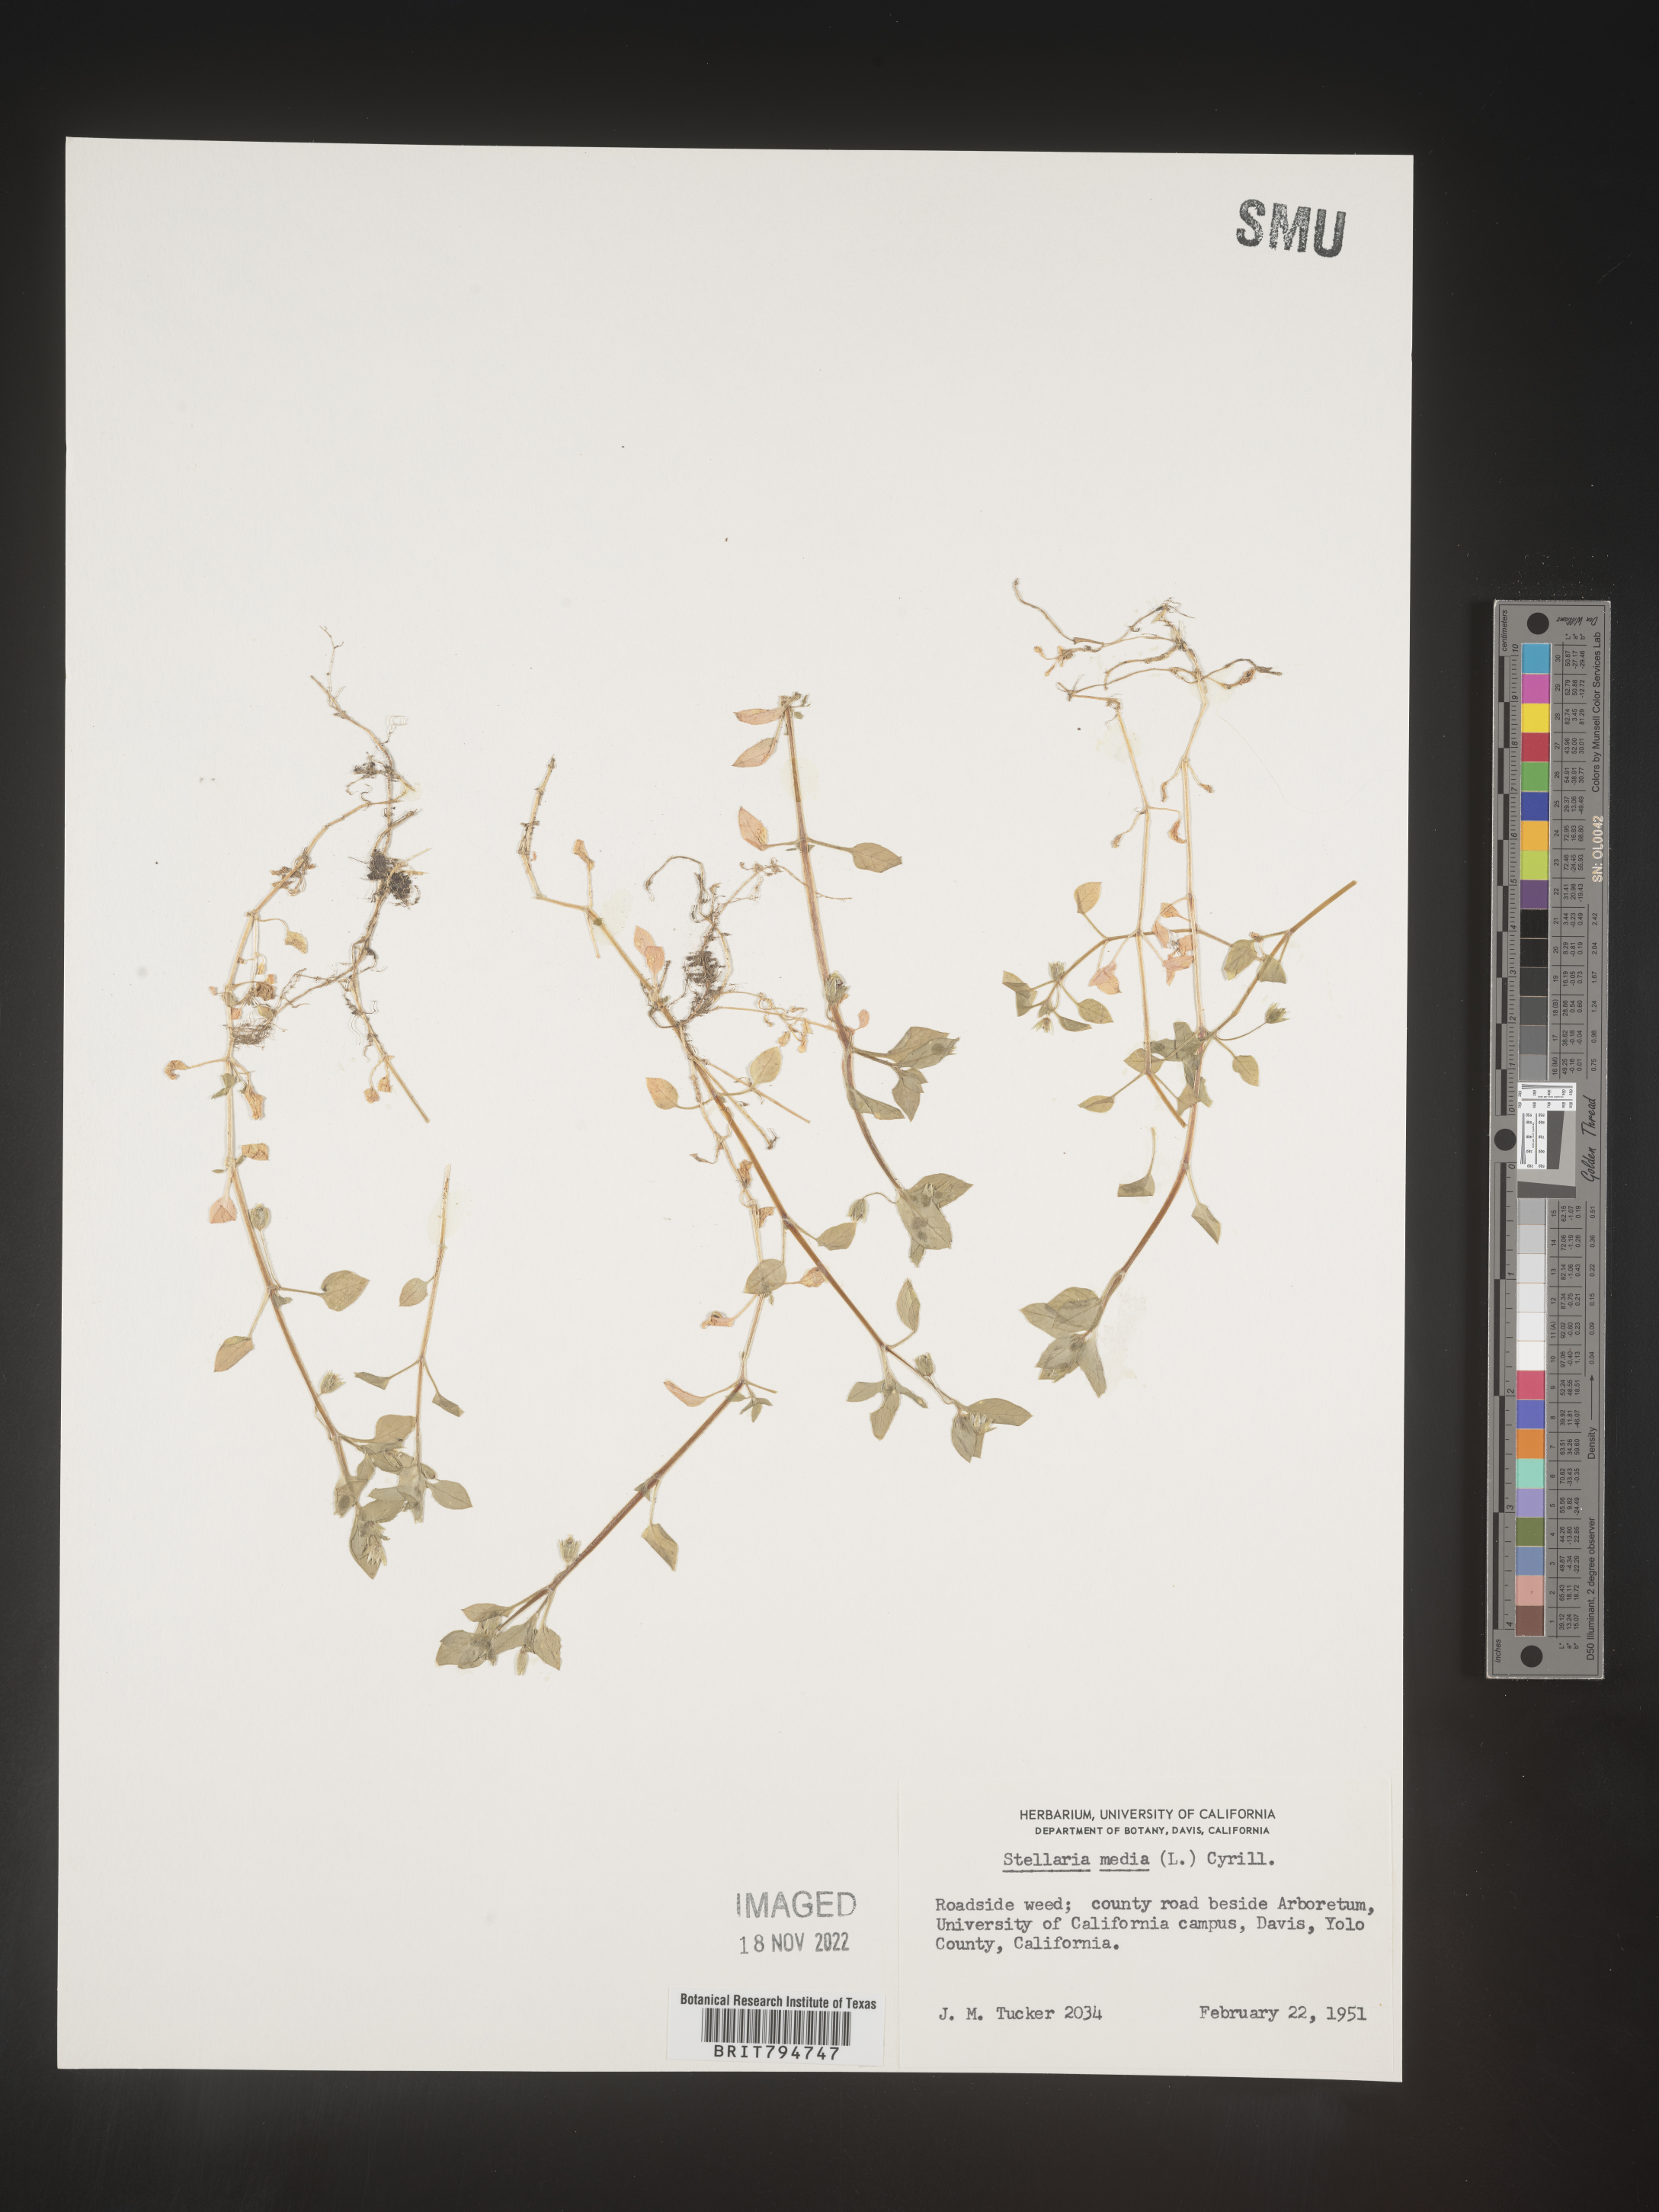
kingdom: Plantae
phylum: Tracheophyta
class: Magnoliopsida
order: Caryophyllales
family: Caryophyllaceae
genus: Stellaria
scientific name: Stellaria media
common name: Common chickweed
